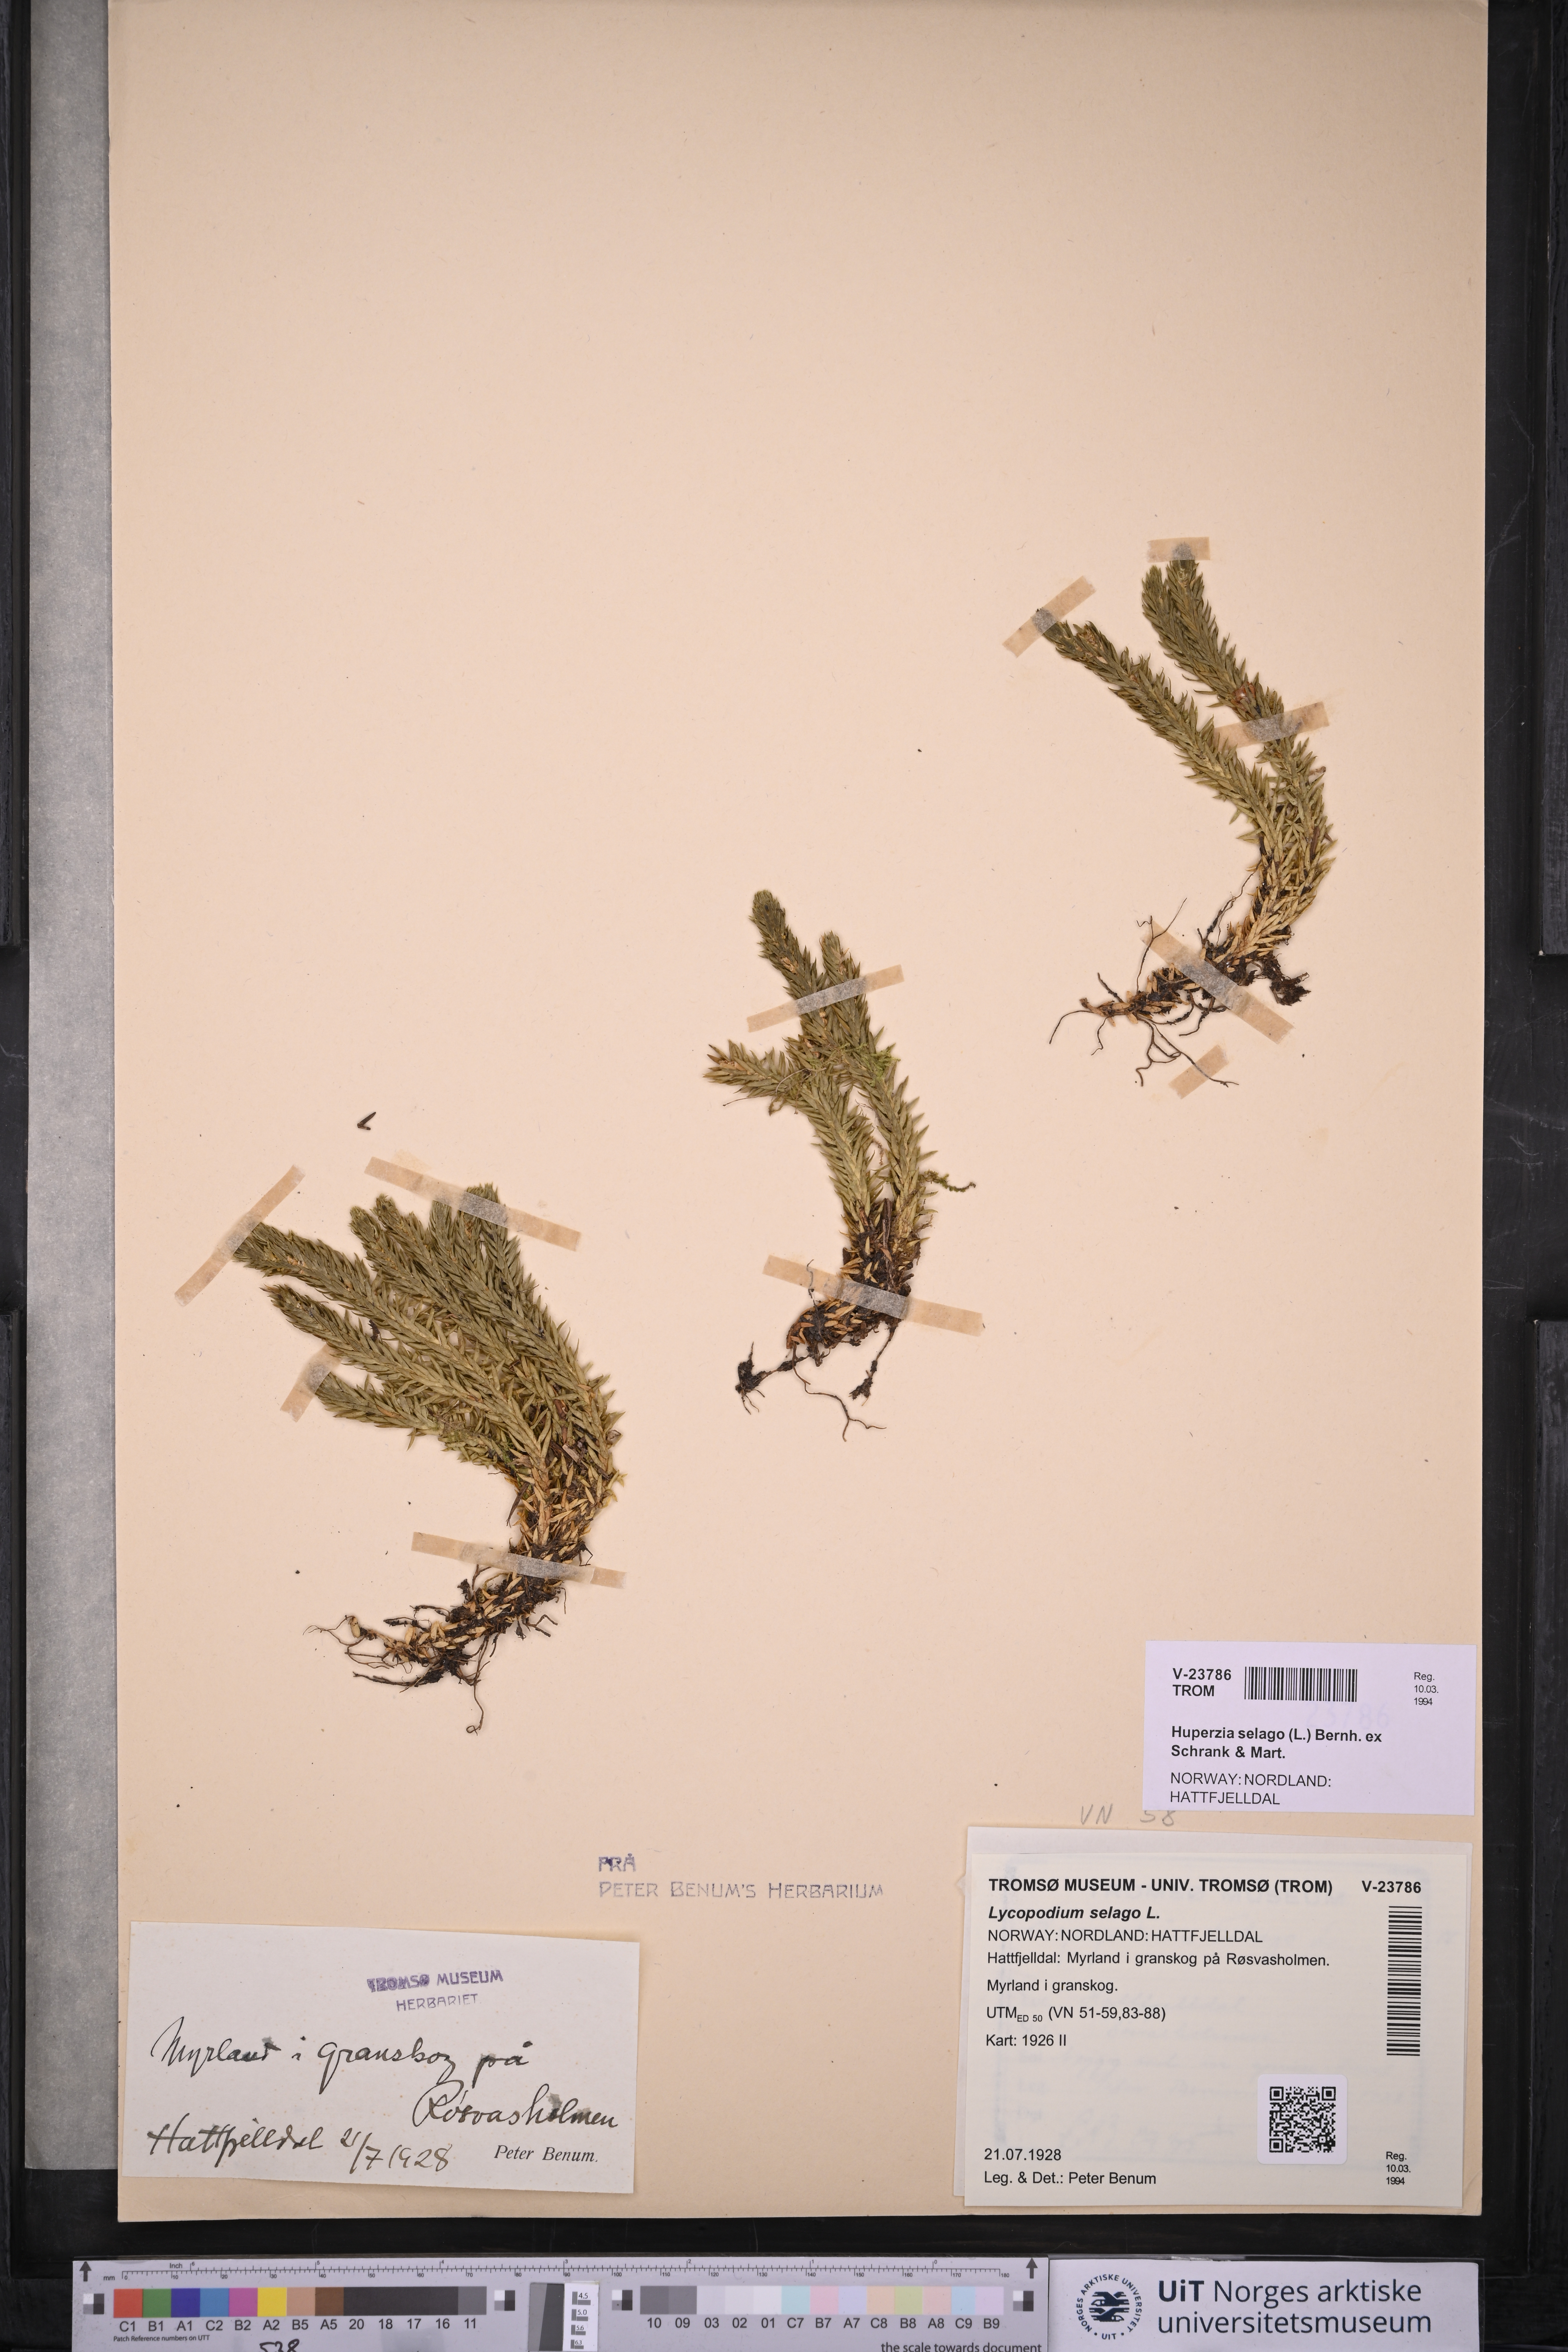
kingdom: Plantae
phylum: Tracheophyta
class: Lycopodiopsida
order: Lycopodiales
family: Lycopodiaceae
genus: Huperzia
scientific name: Huperzia selago
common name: Northern firmoss
